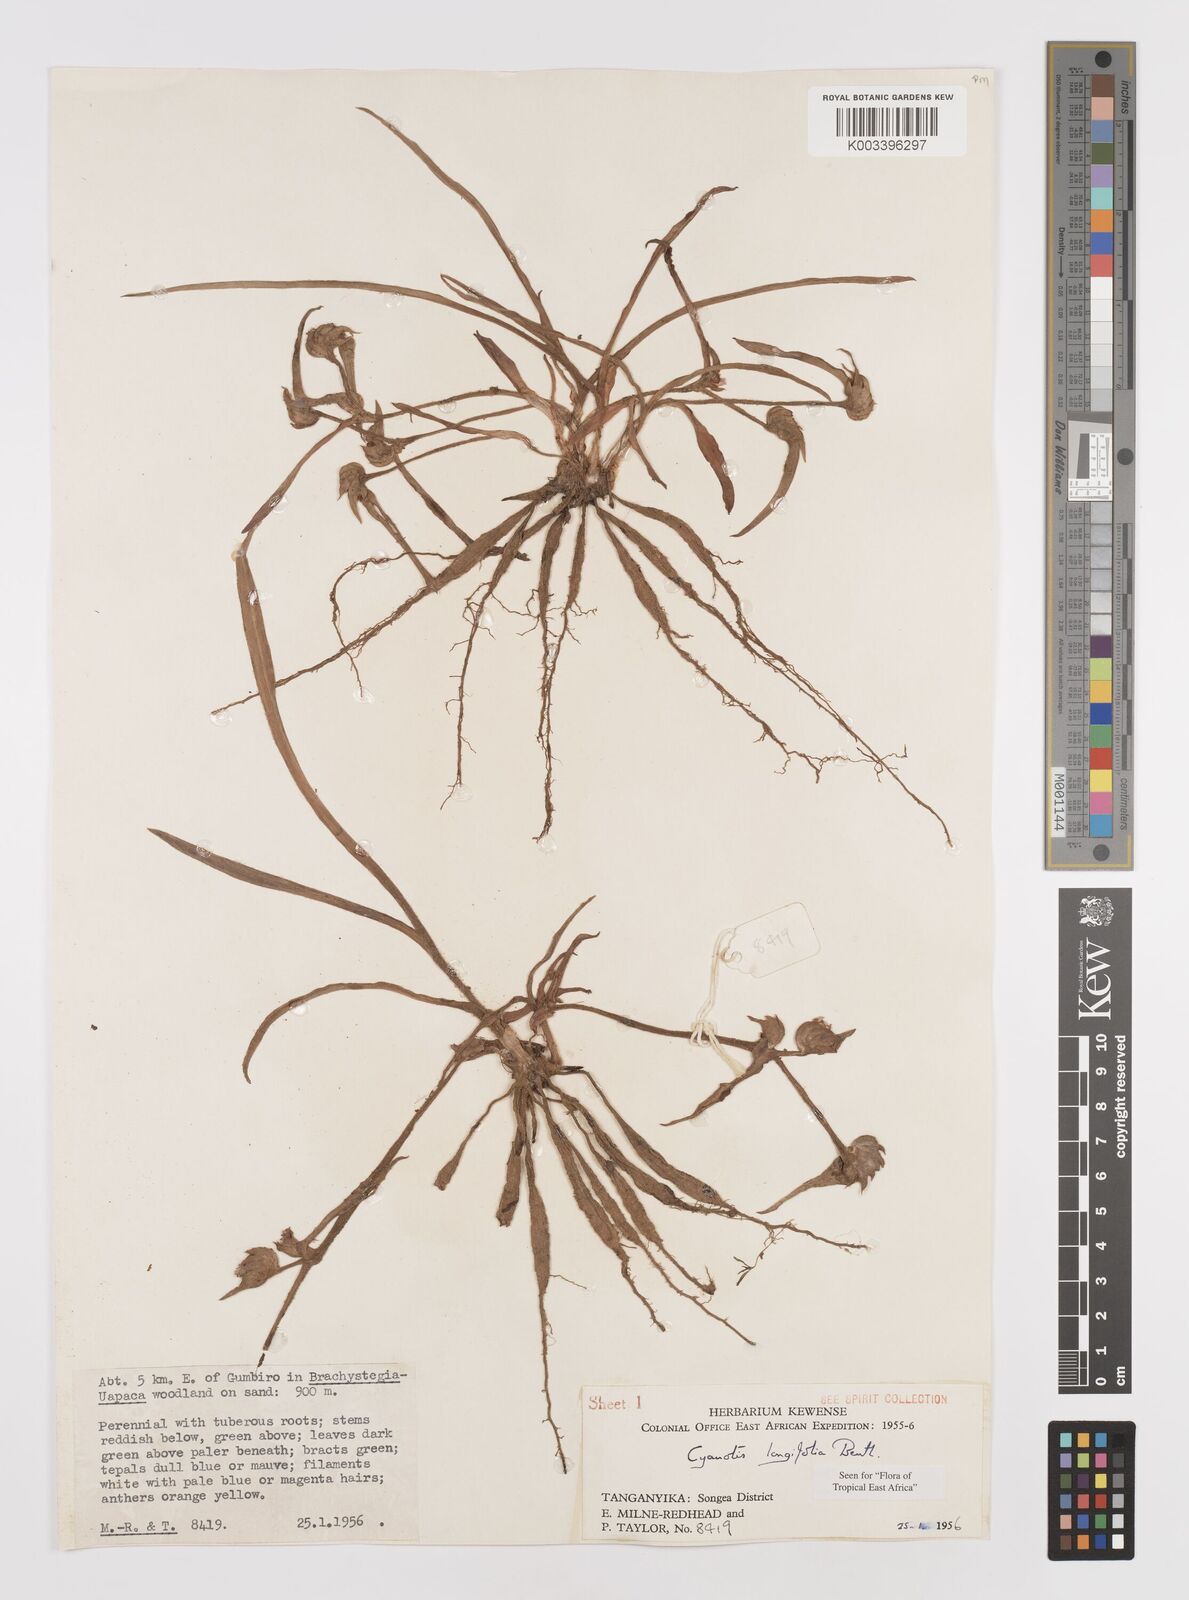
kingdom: Plantae
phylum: Tracheophyta
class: Liliopsida
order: Commelinales
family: Commelinaceae
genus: Cyanotis
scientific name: Cyanotis longifolia
